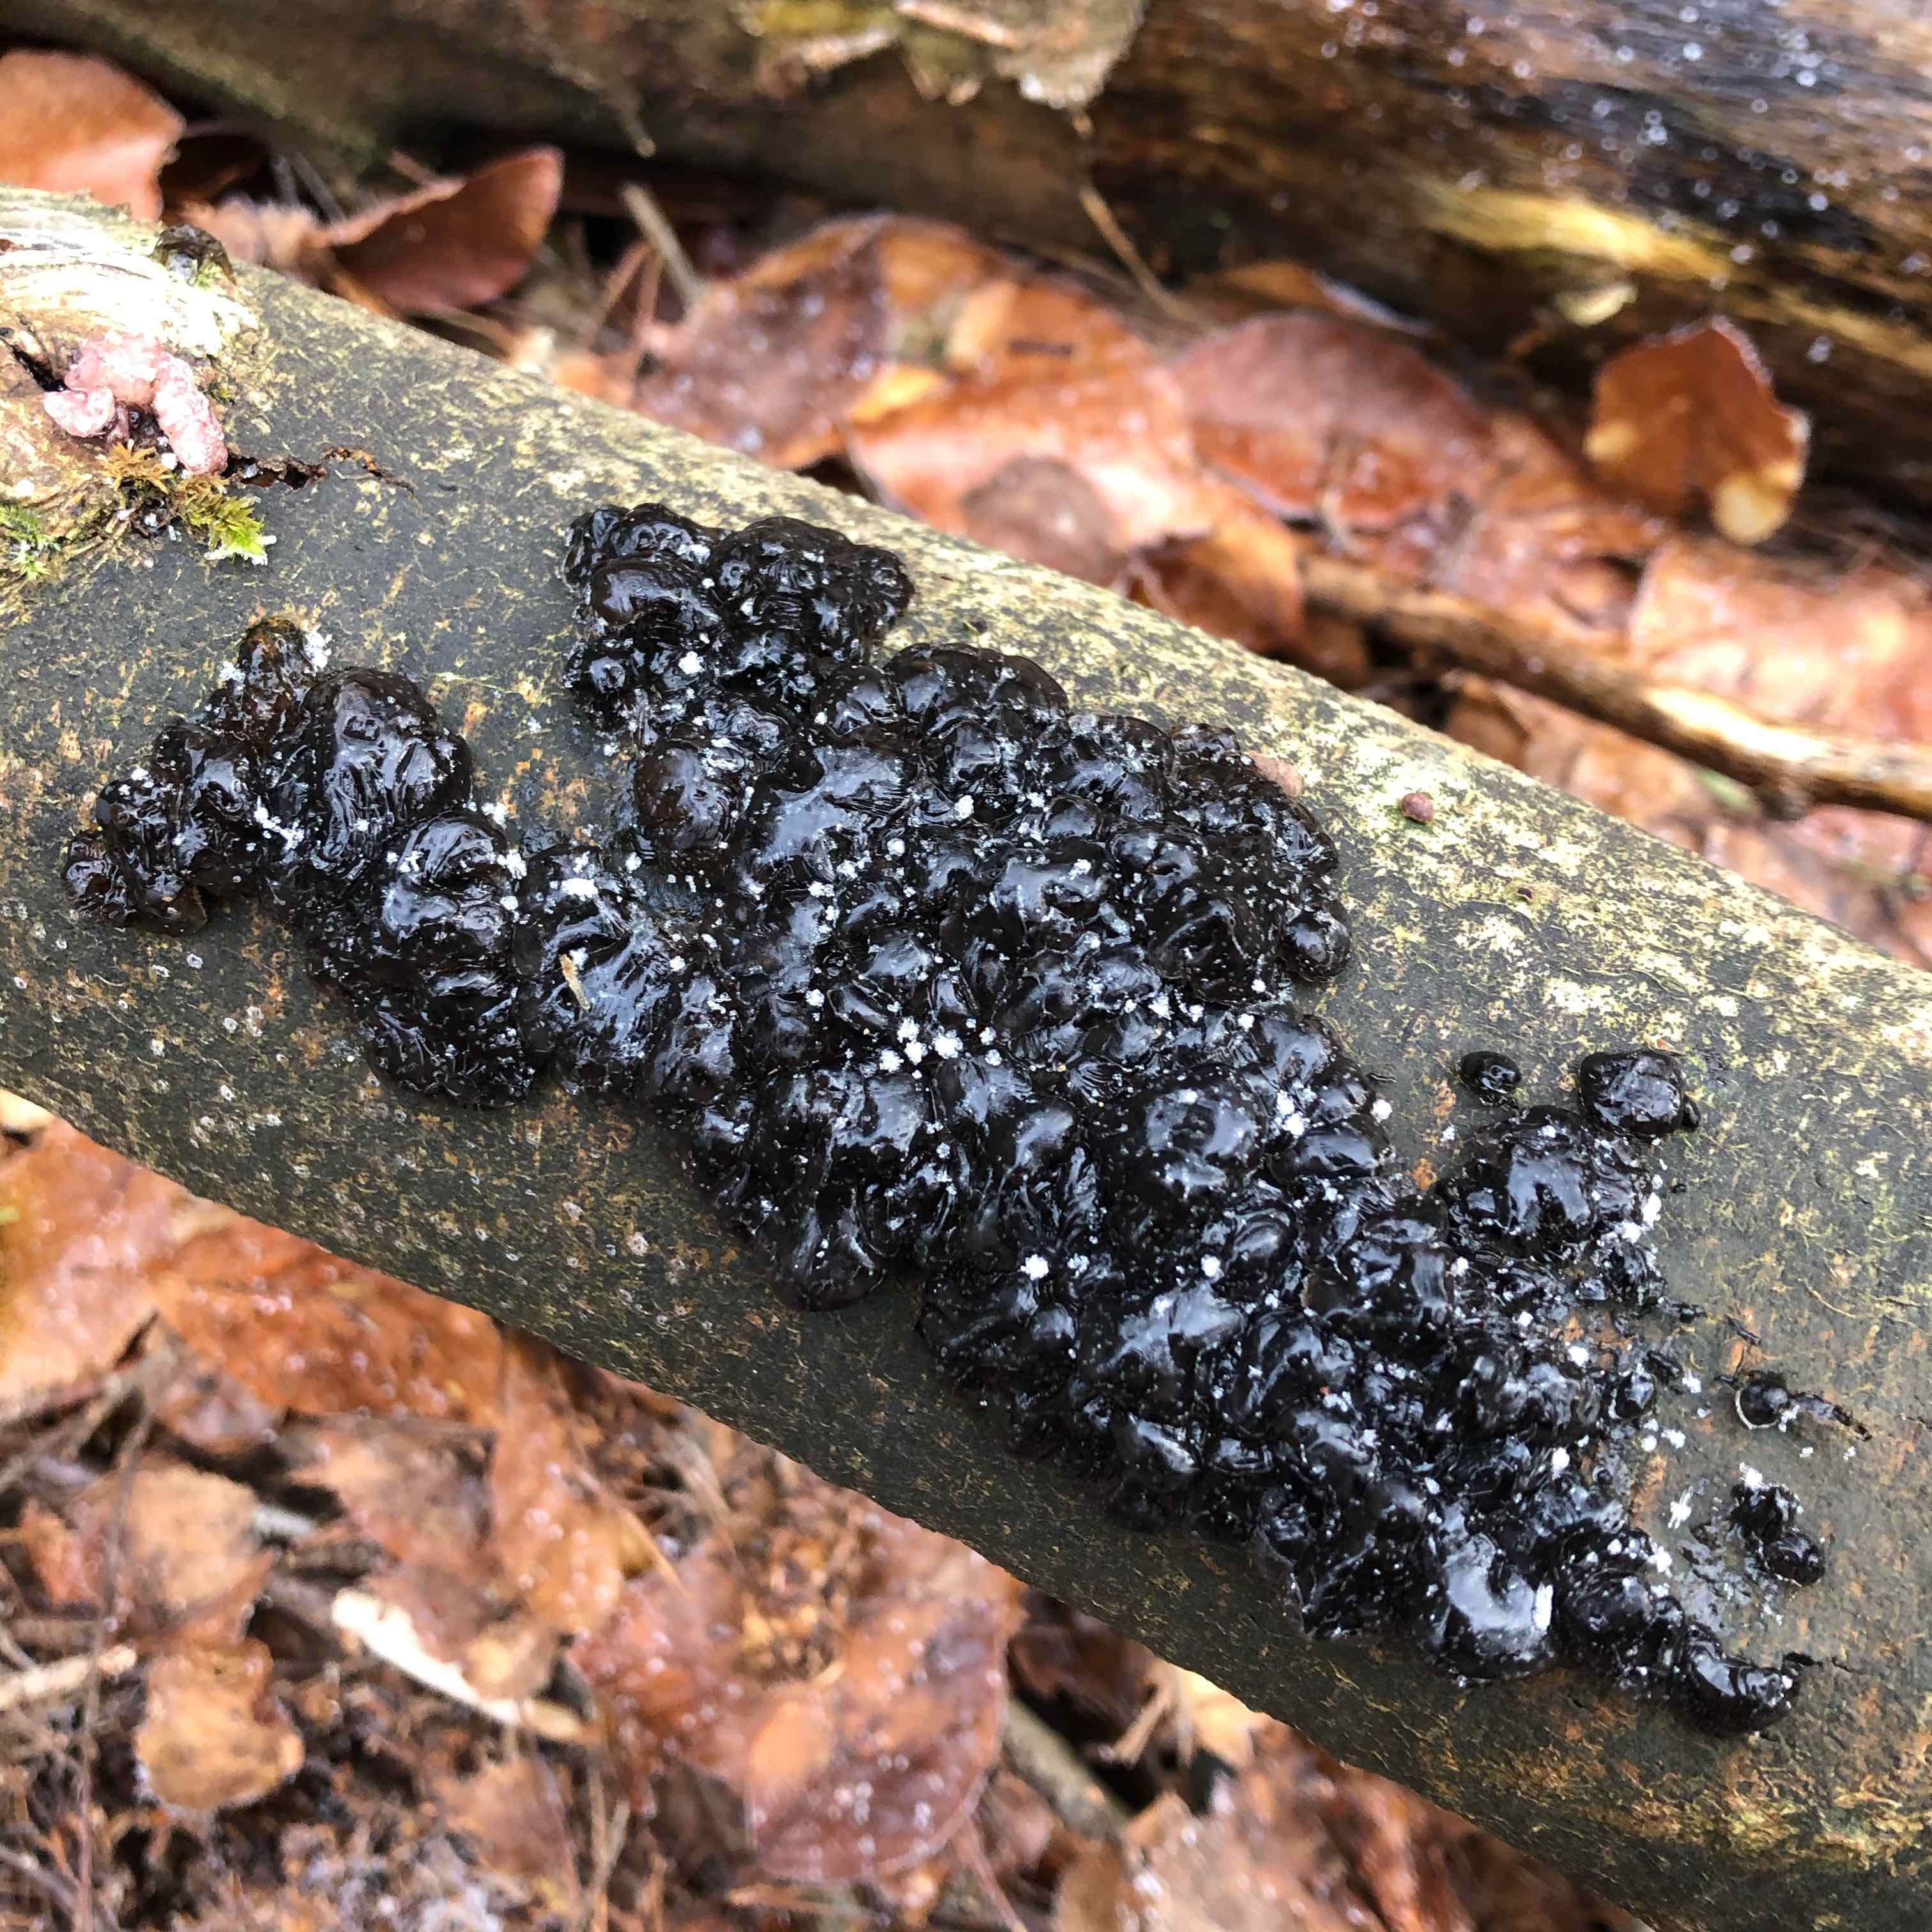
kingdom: Fungi
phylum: Basidiomycota
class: Agaricomycetes
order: Auriculariales
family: Auriculariaceae
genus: Exidia
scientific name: Exidia nigricans
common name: almindelig bævretop
